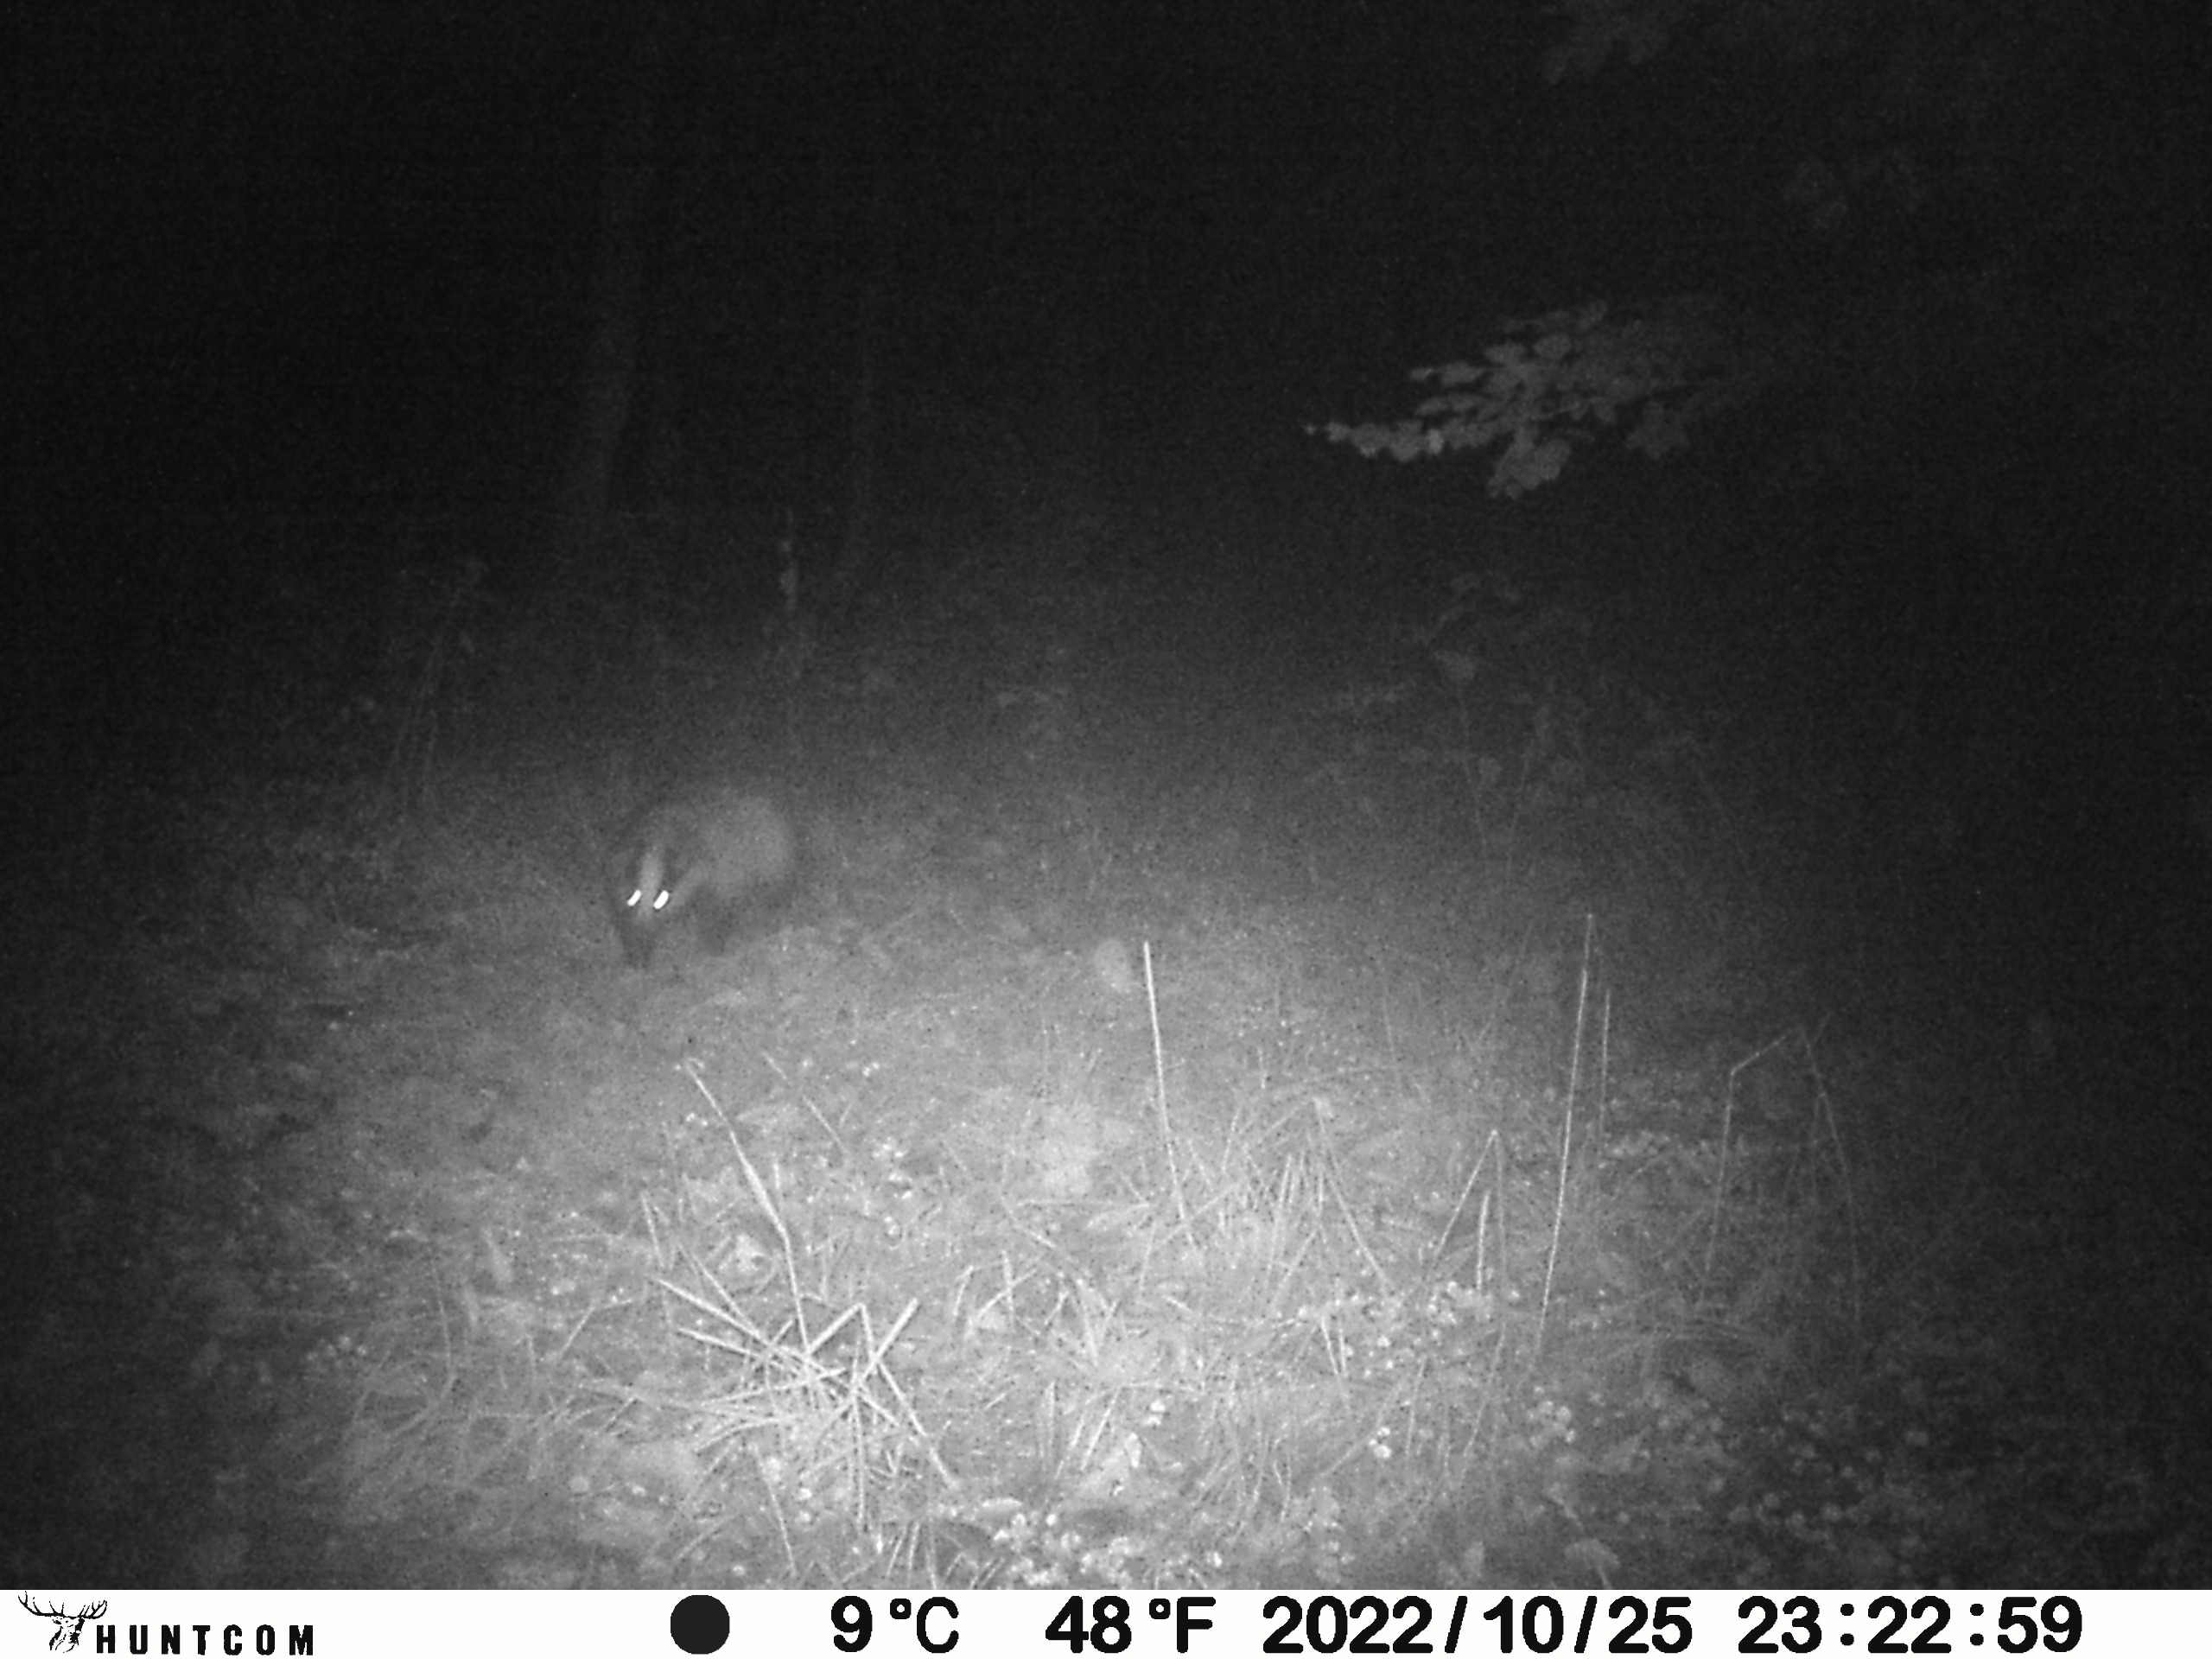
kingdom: Animalia
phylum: Chordata
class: Mammalia
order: Carnivora
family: Mustelidae
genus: Meles
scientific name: Meles meles
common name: Grævling
